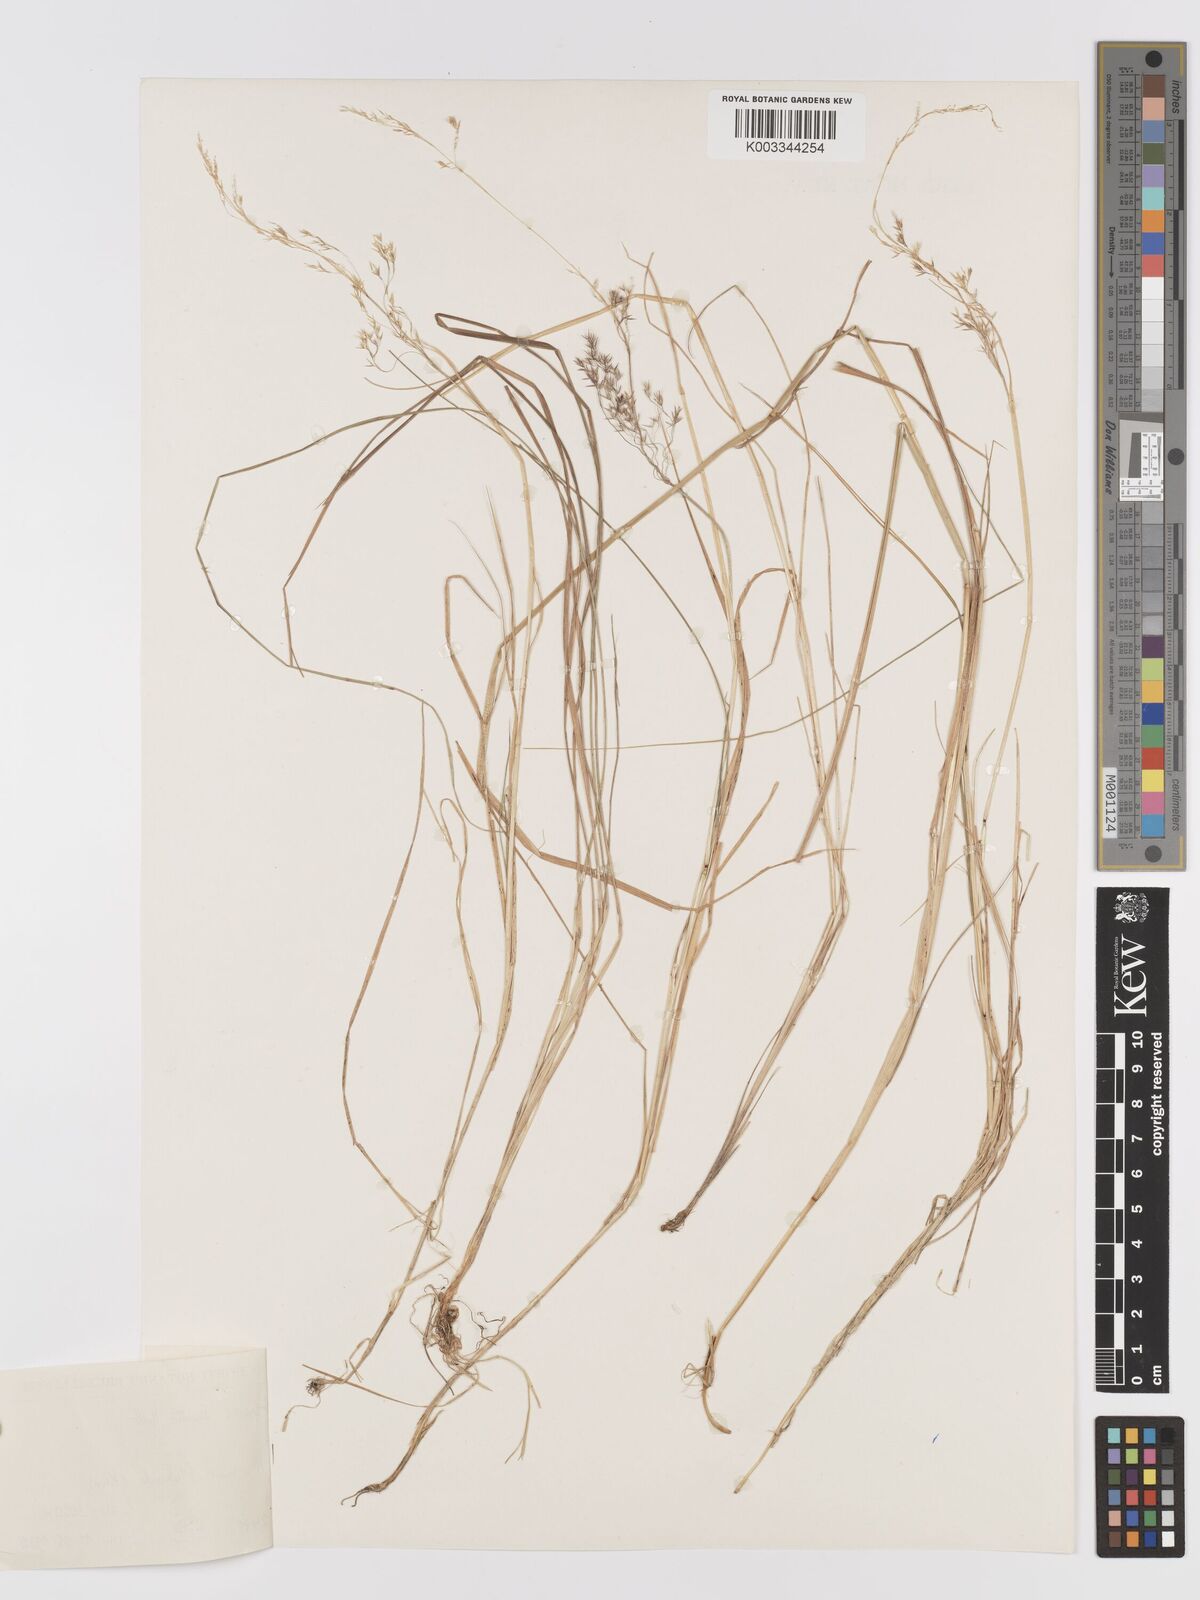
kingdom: Plantae
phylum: Tracheophyta
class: Liliopsida
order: Poales
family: Poaceae
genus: Agrostis
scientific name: Agrostis kilimandscharica
